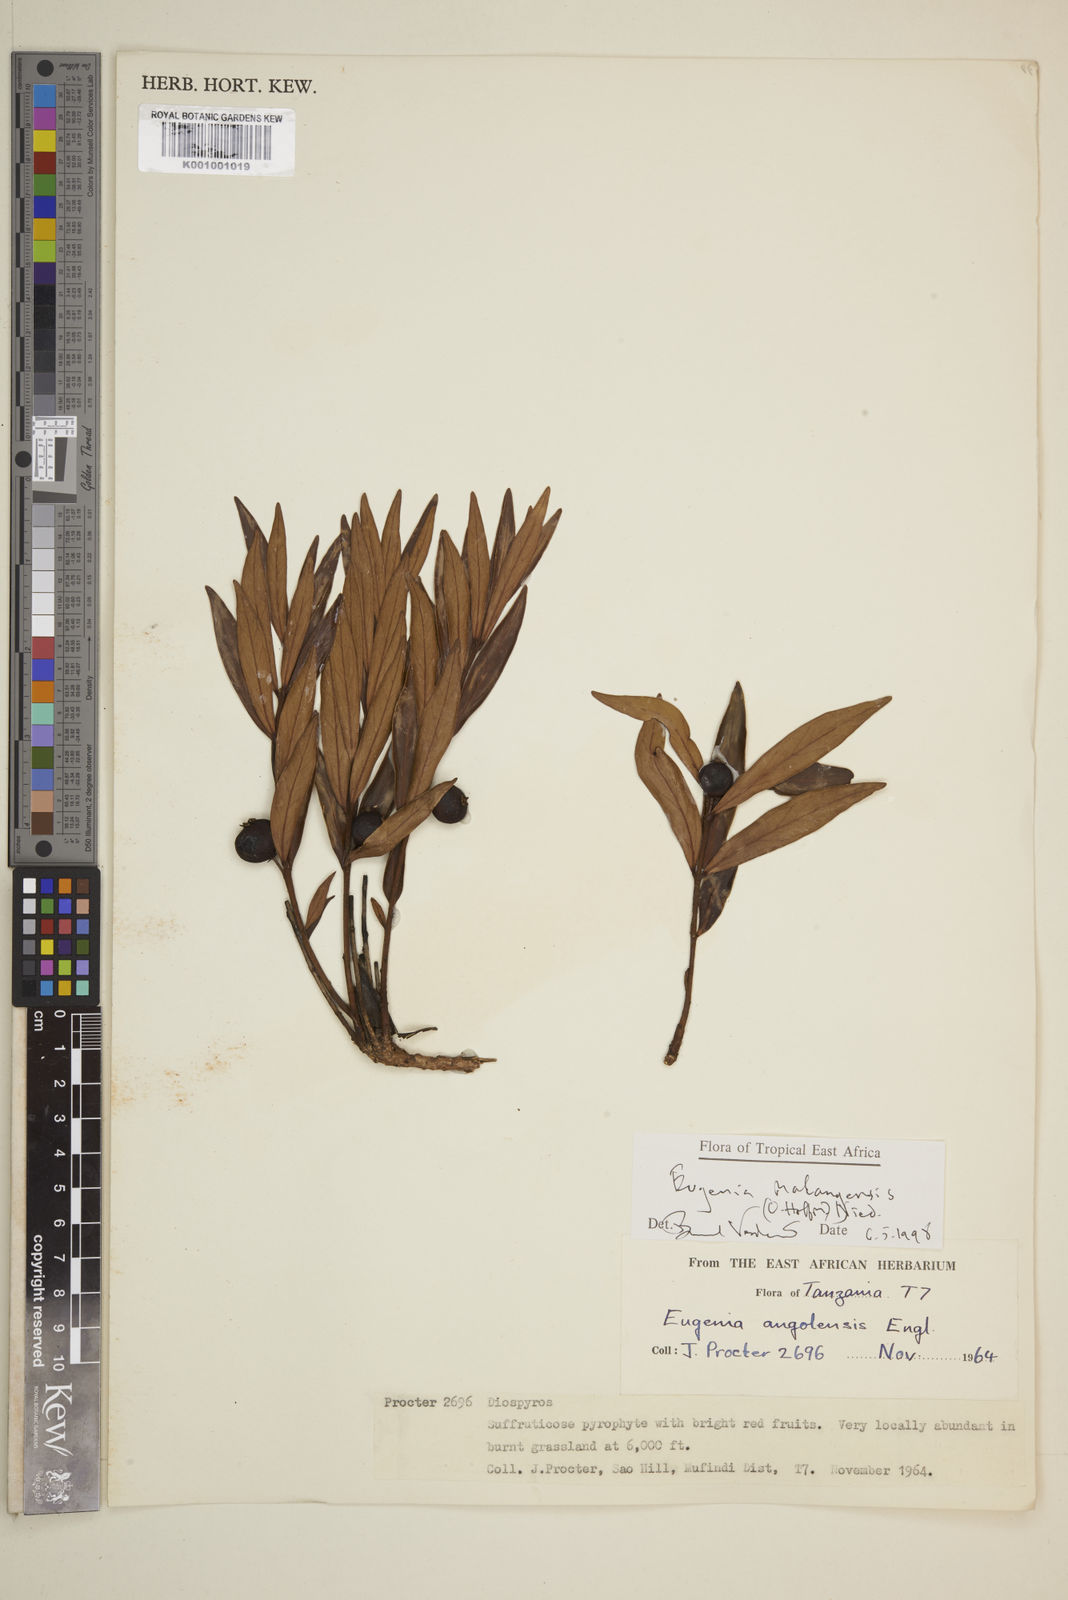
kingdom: Plantae
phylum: Tracheophyta
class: Magnoliopsida
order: Myrtales
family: Myrtaceae
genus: Eugenia
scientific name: Eugenia malangensis
